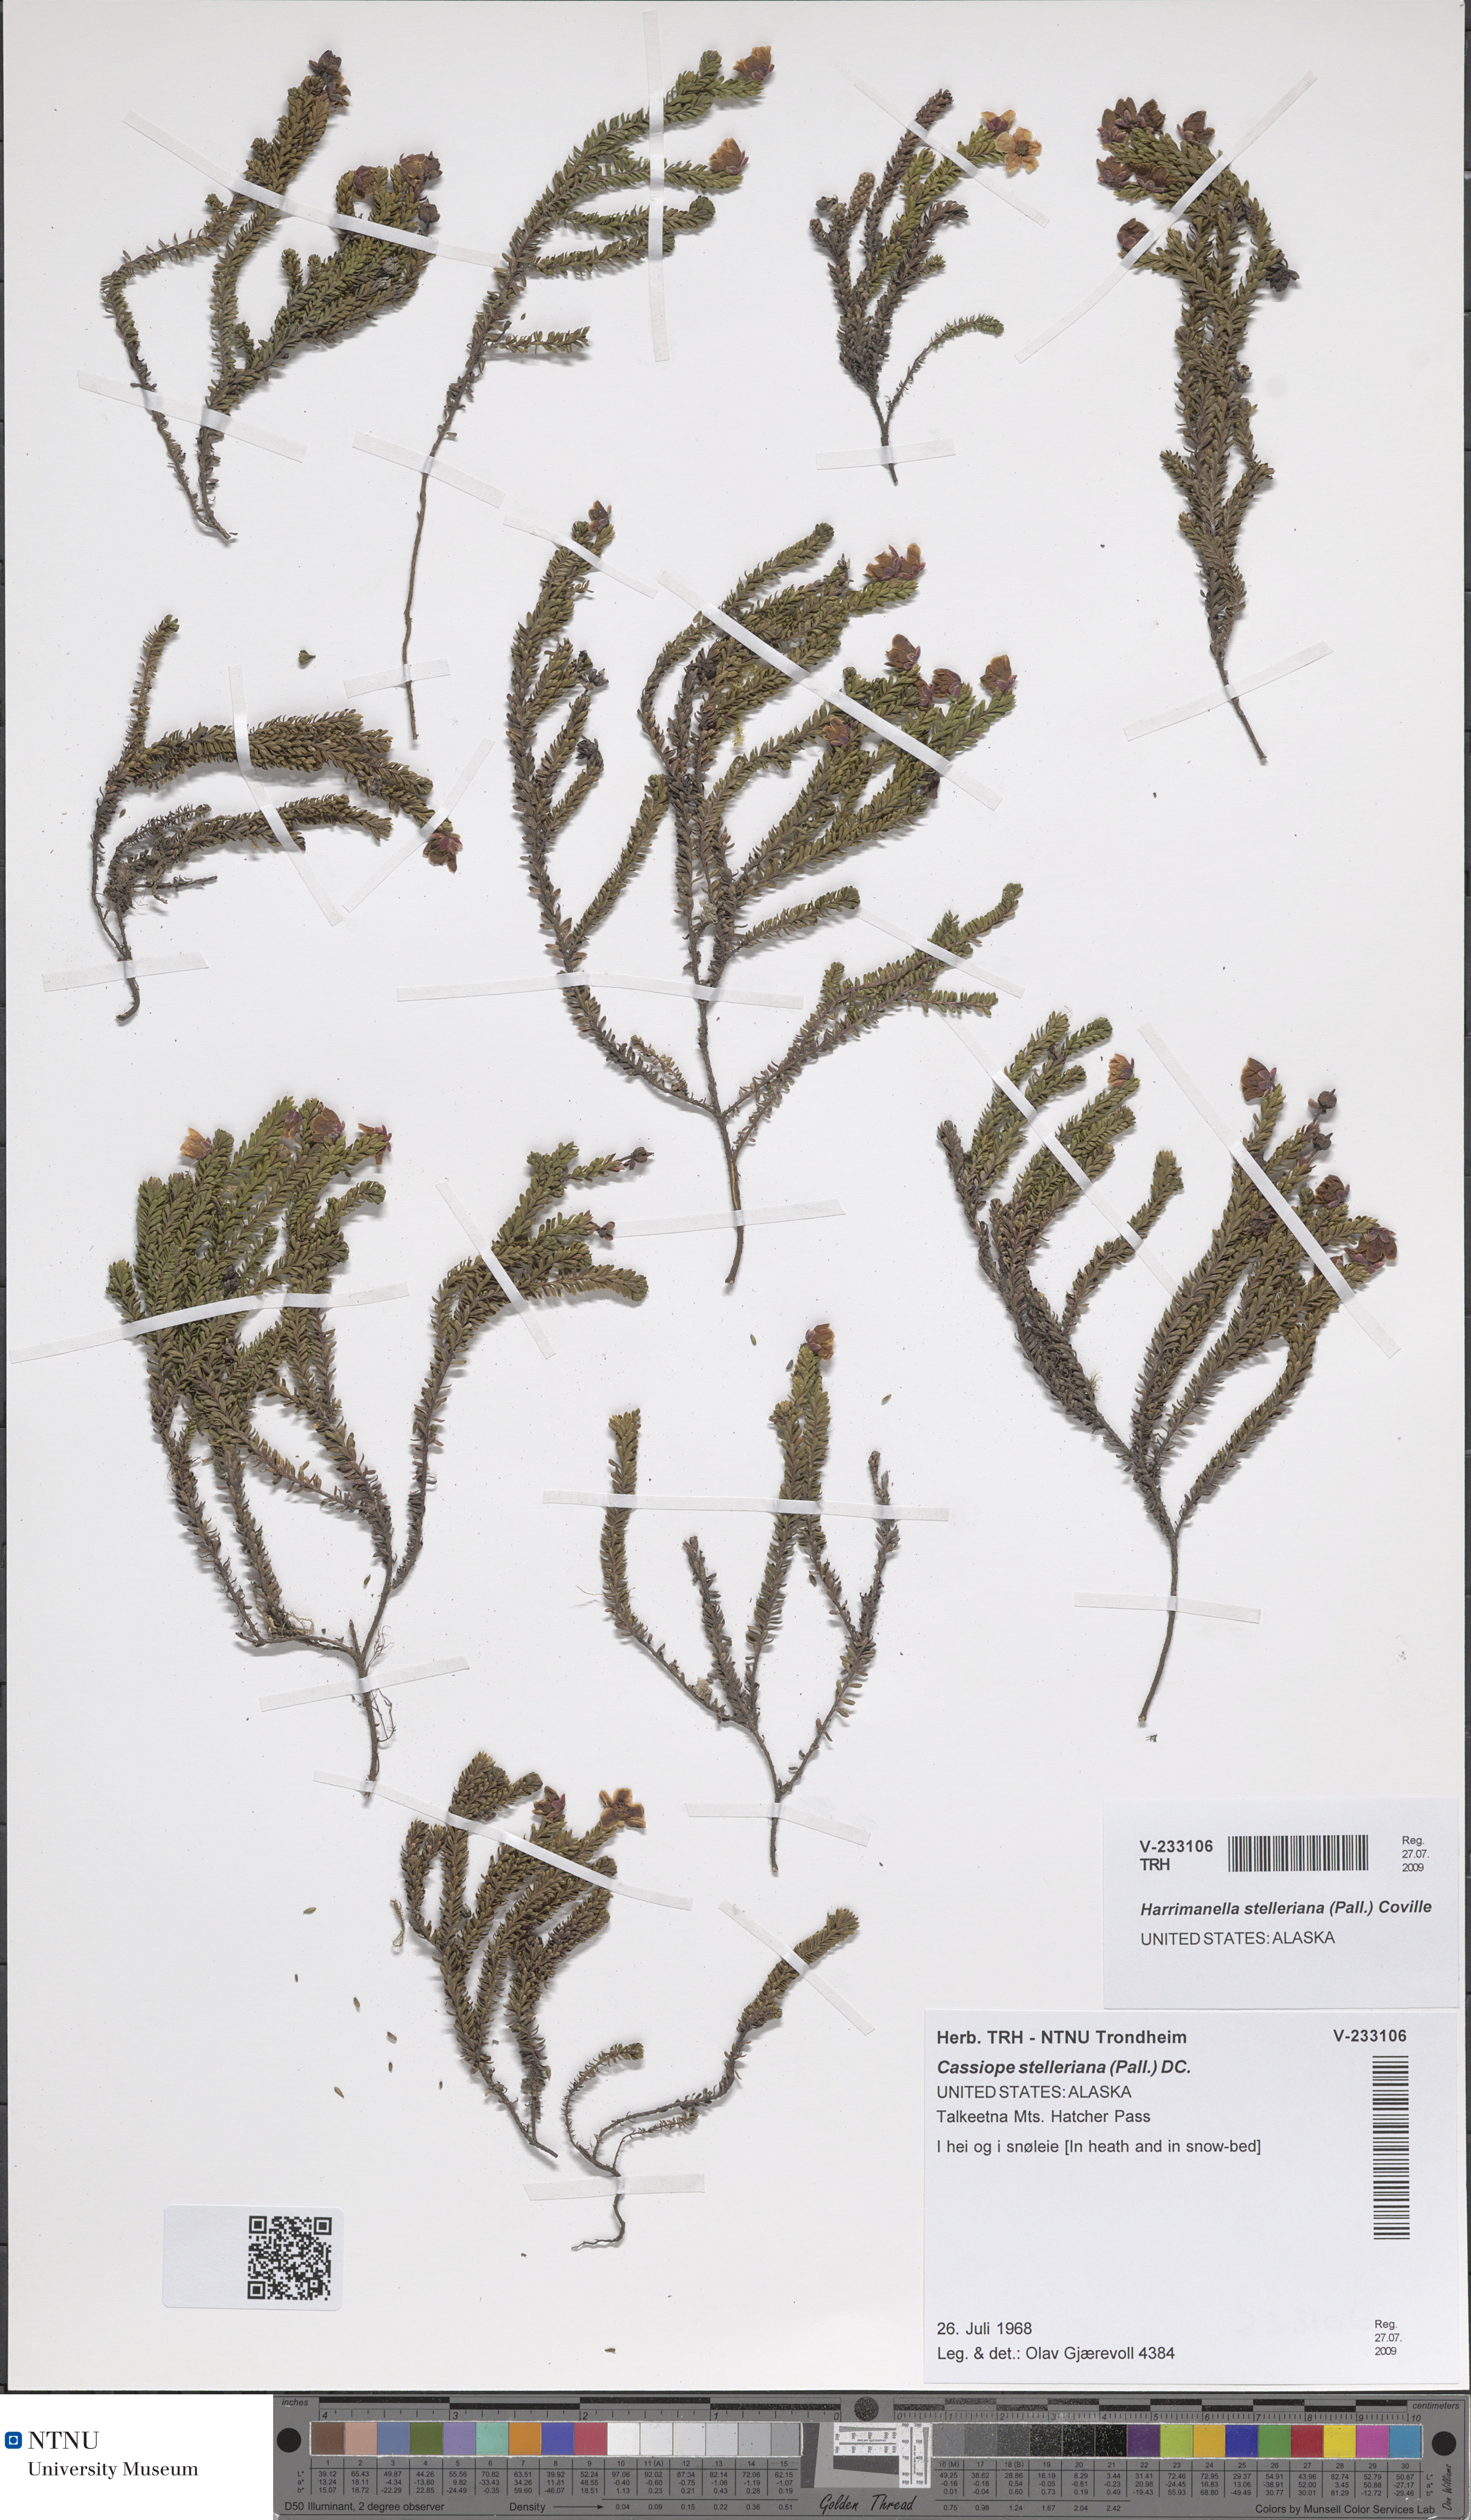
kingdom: Plantae
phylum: Tracheophyta
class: Magnoliopsida
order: Ericales
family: Ericaceae
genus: Harrimanella
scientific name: Harrimanella stelleriana
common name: Alaska bell heather
